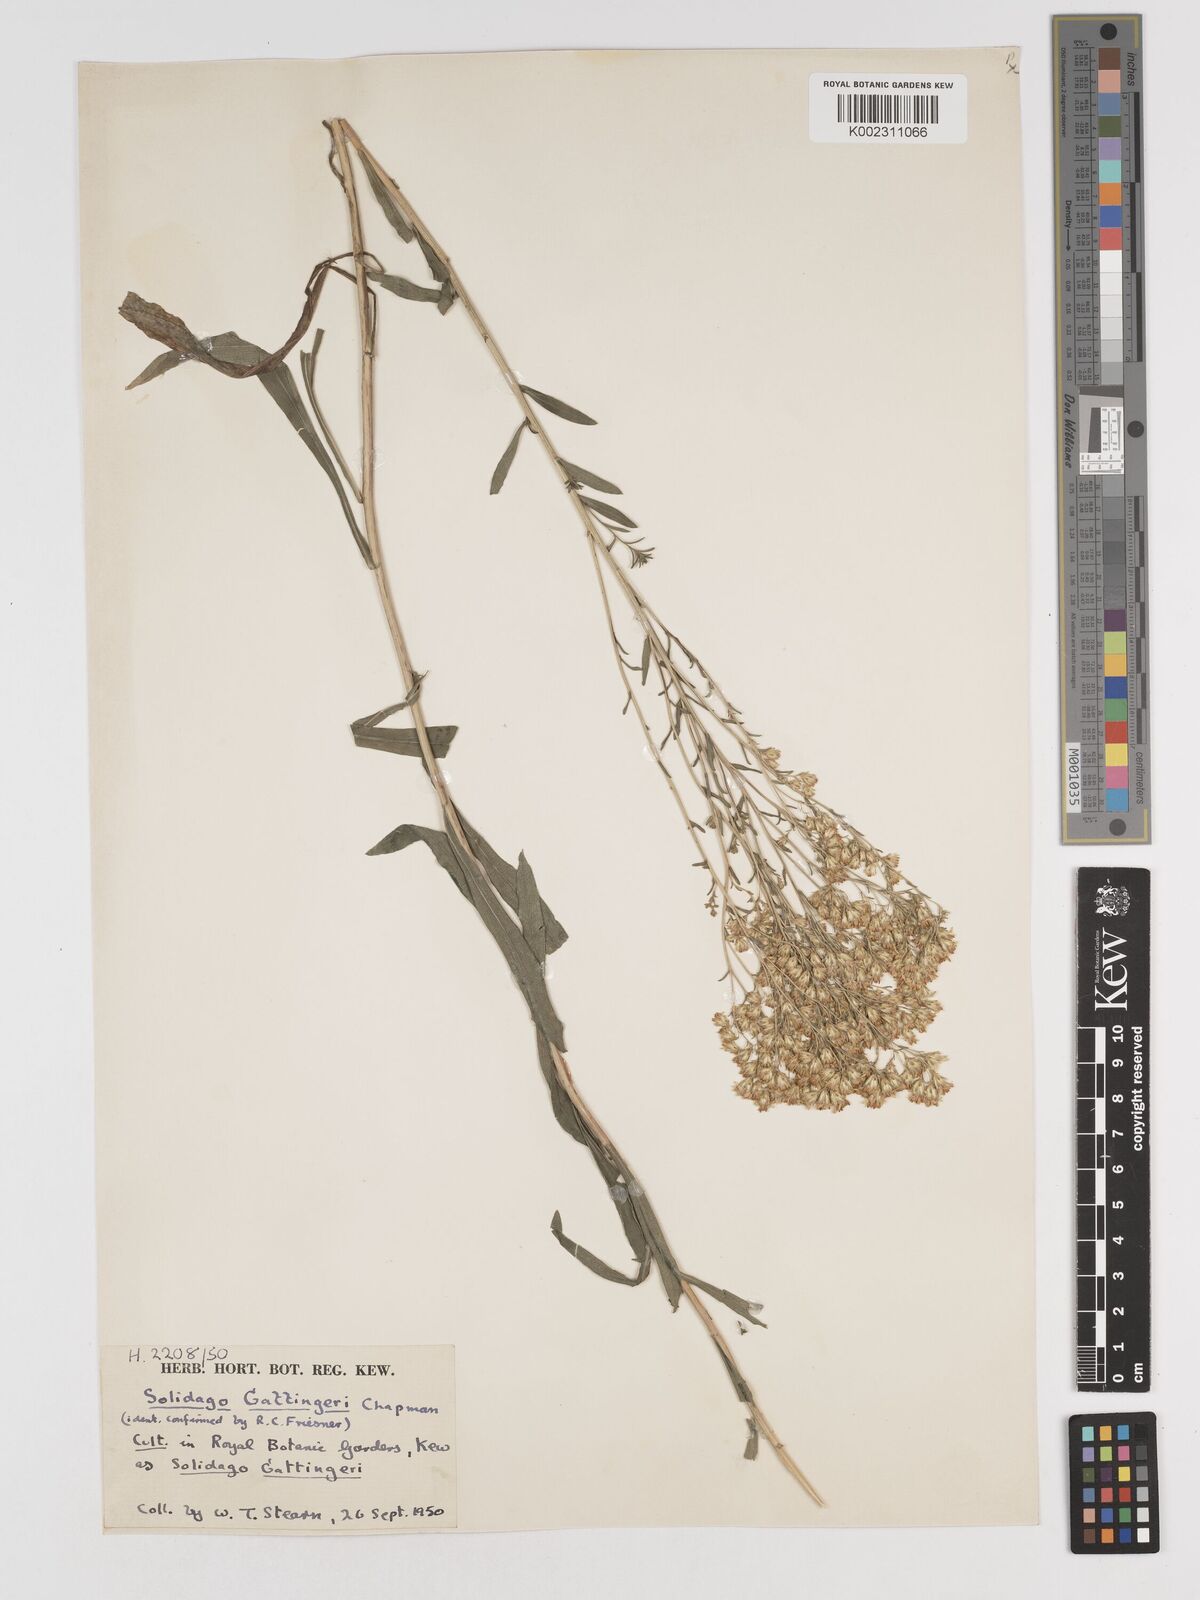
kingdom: Plantae
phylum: Tracheophyta
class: Magnoliopsida
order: Asterales
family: Asteraceae
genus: Solidago
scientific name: Solidago missouriensis
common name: Prairie goldenrod
